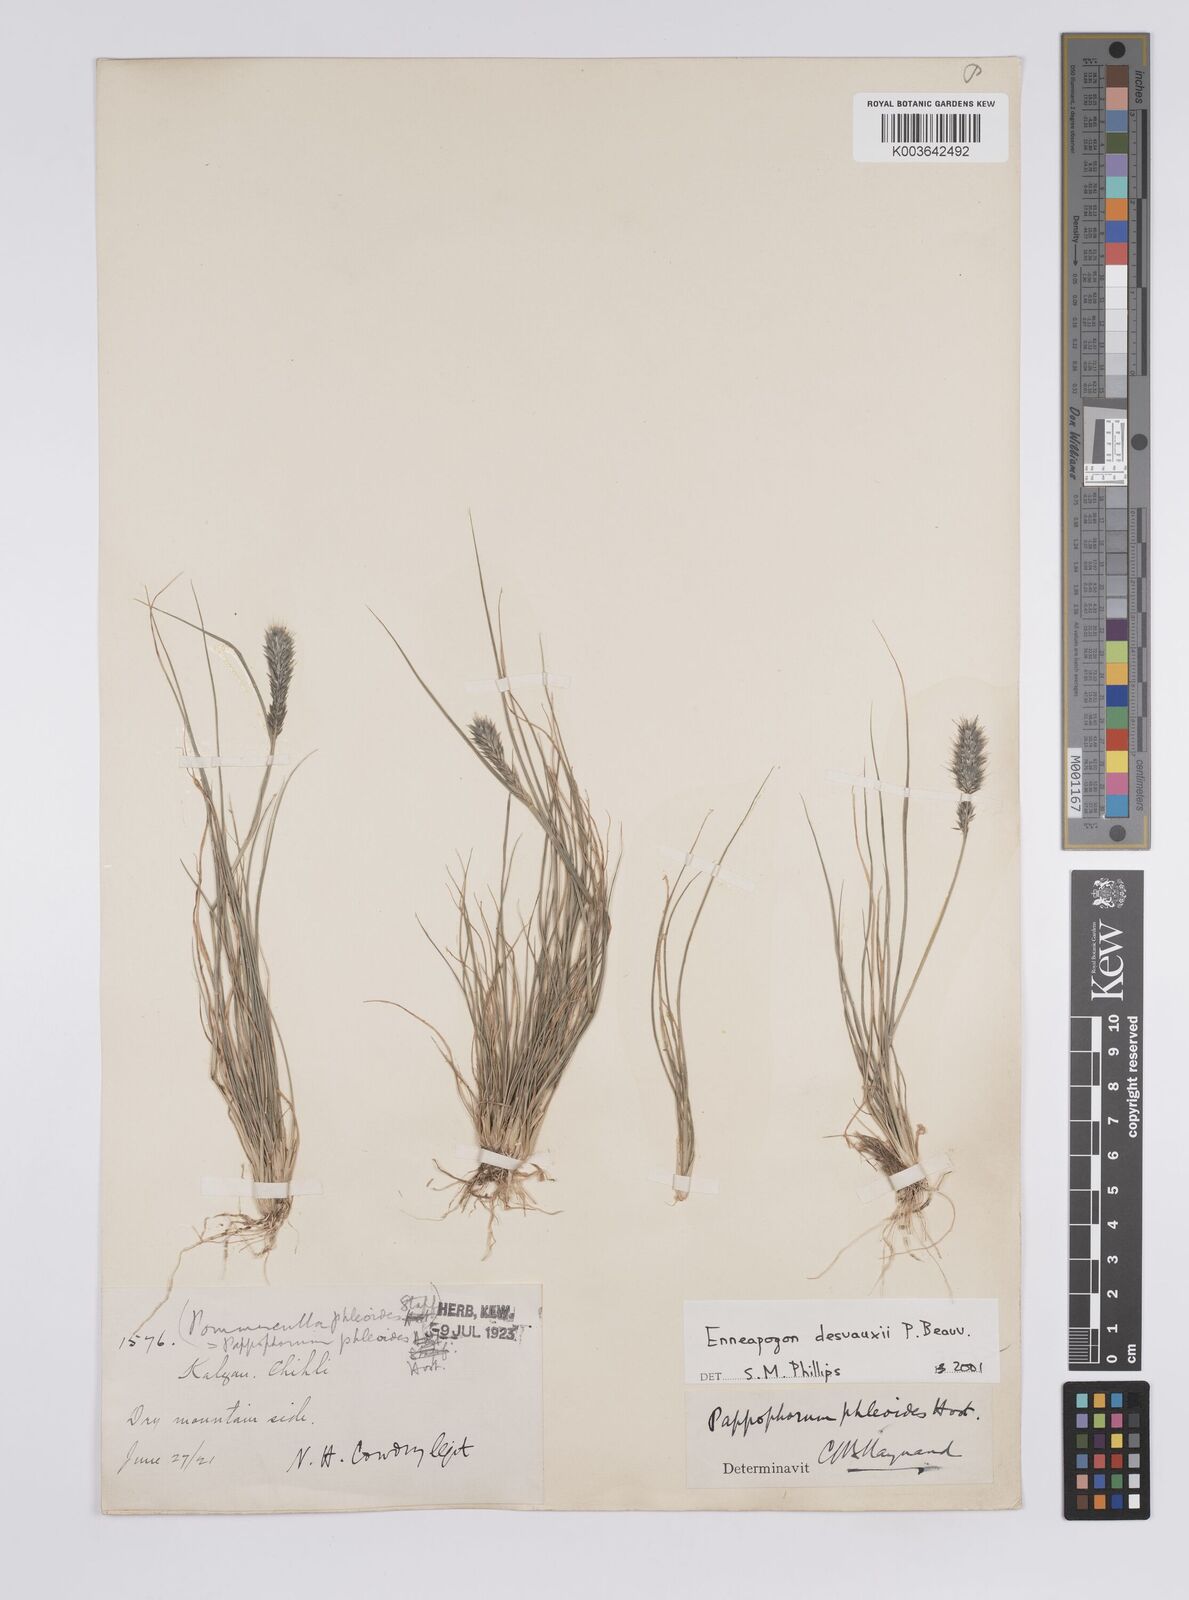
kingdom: Plantae
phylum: Tracheophyta
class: Liliopsida
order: Poales
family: Poaceae
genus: Enneapogon
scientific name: Enneapogon desvauxii
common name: Feather pappus grass
